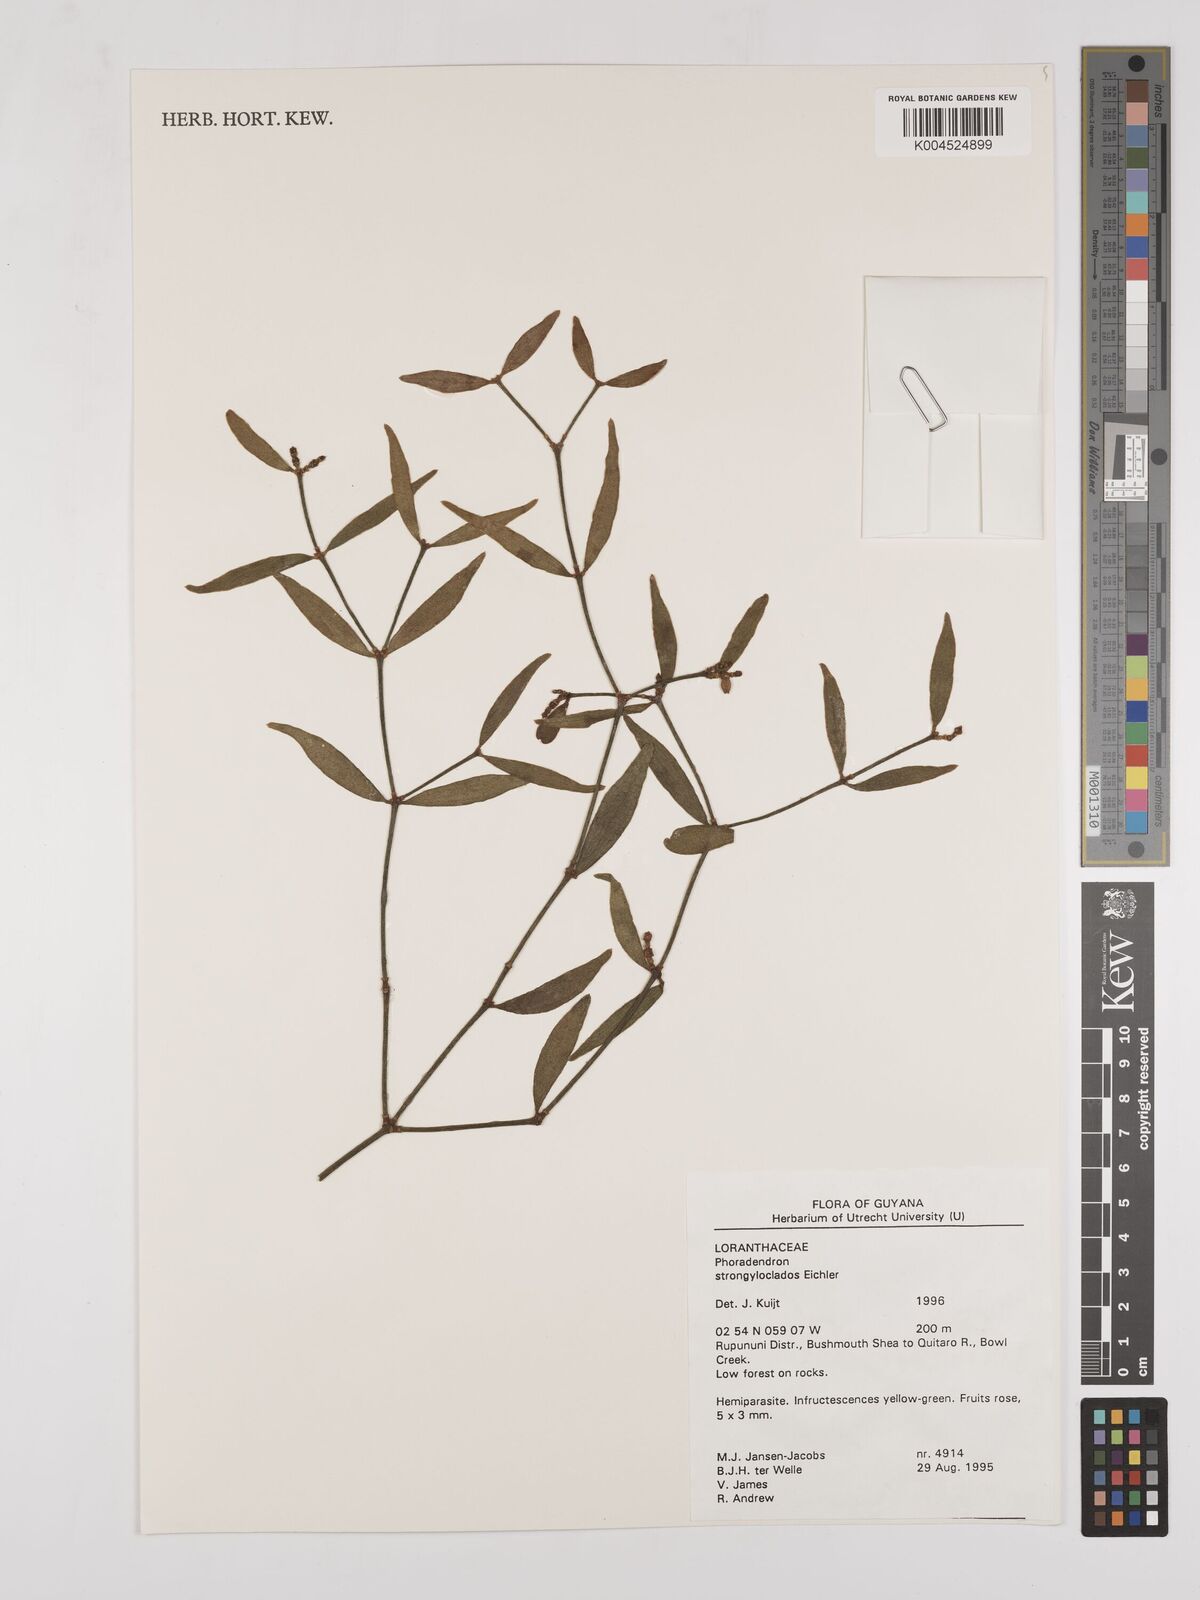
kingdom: Plantae
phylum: Tracheophyta
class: Magnoliopsida
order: Santalales
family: Viscaceae
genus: Phoradendron
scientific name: Phoradendron strongyloclados
